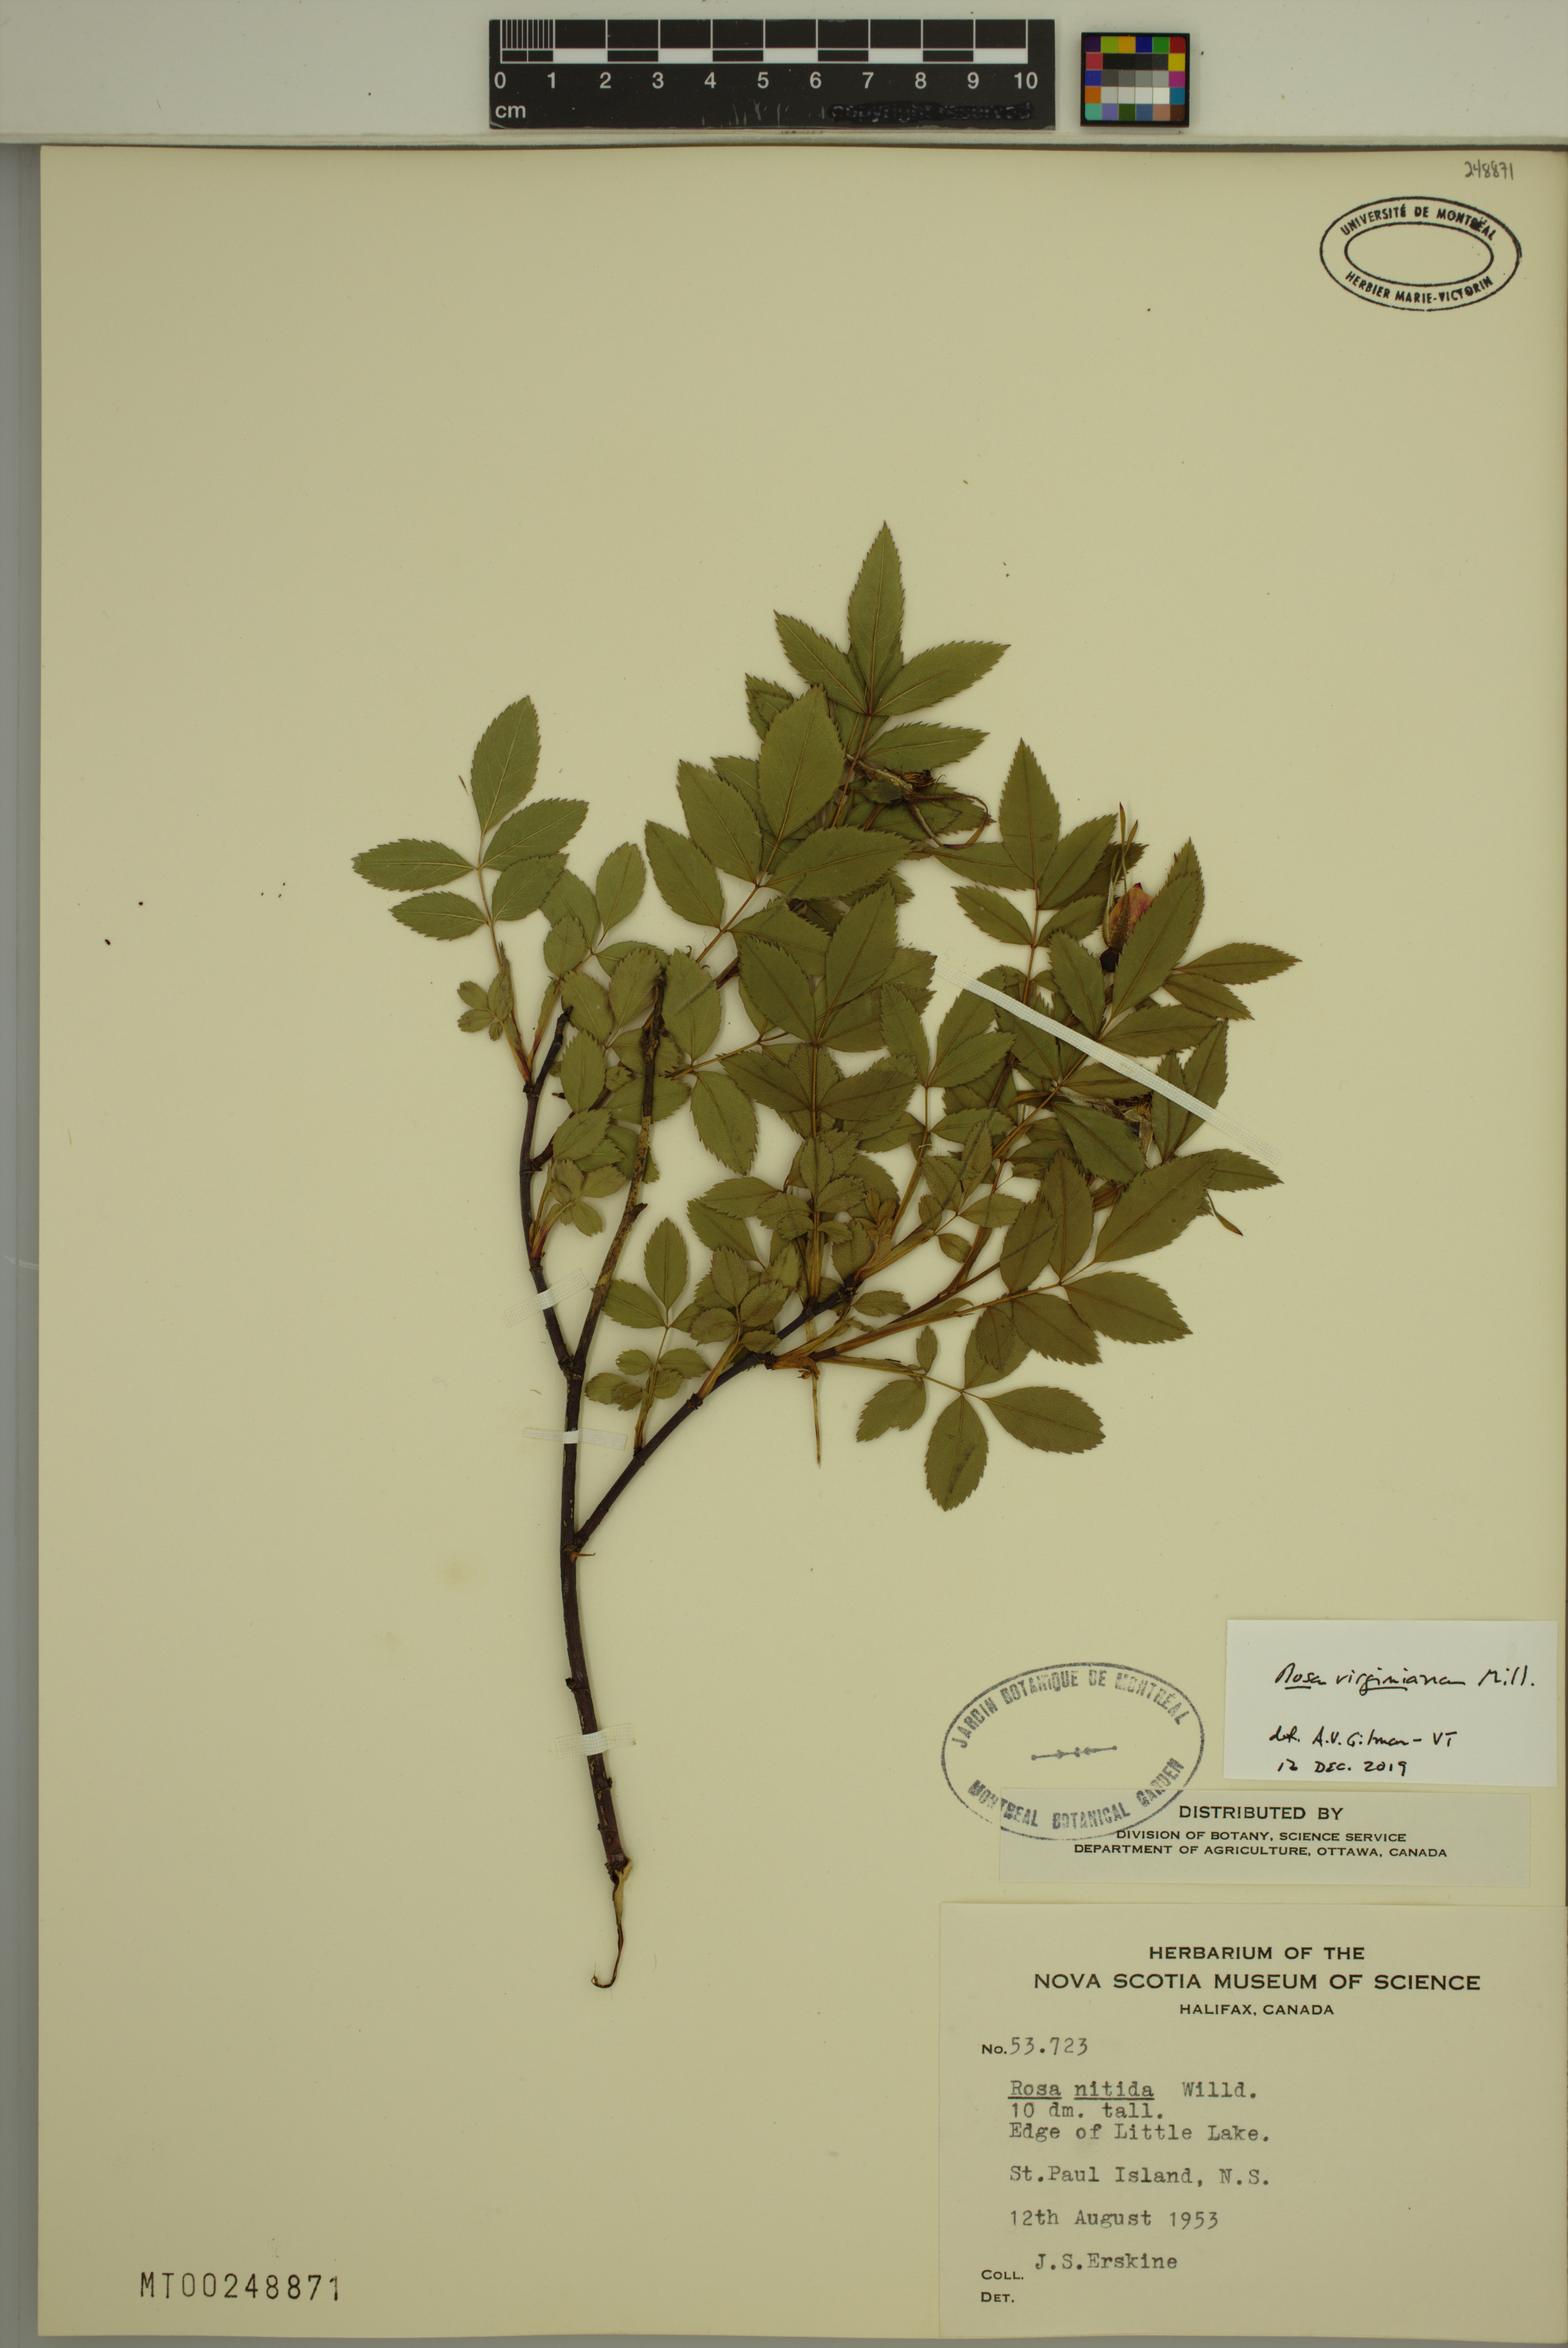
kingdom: Plantae
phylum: Tracheophyta
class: Magnoliopsida
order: Rosales
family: Rosaceae
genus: Rosa
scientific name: Rosa carolina
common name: Pasture rose
